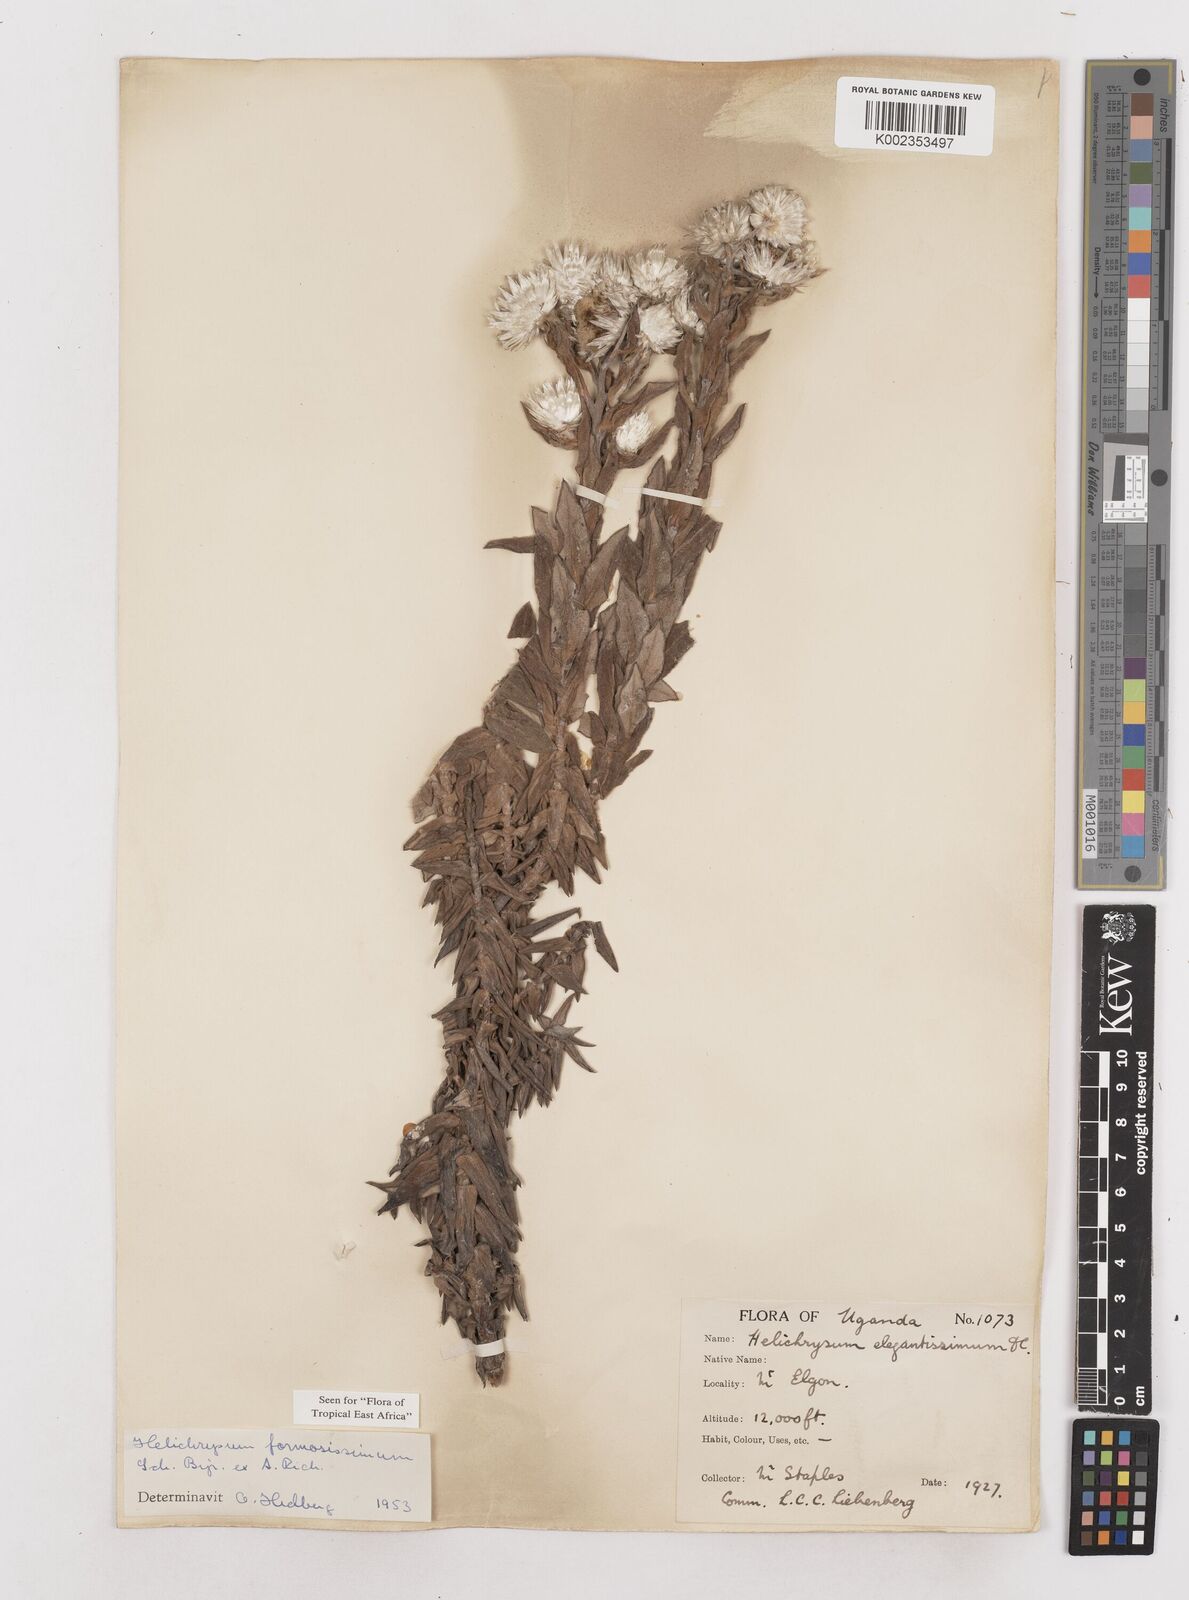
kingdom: Plantae
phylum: Tracheophyta
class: Magnoliopsida
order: Asterales
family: Asteraceae
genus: Helichrysum
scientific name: Helichrysum formosissimum
